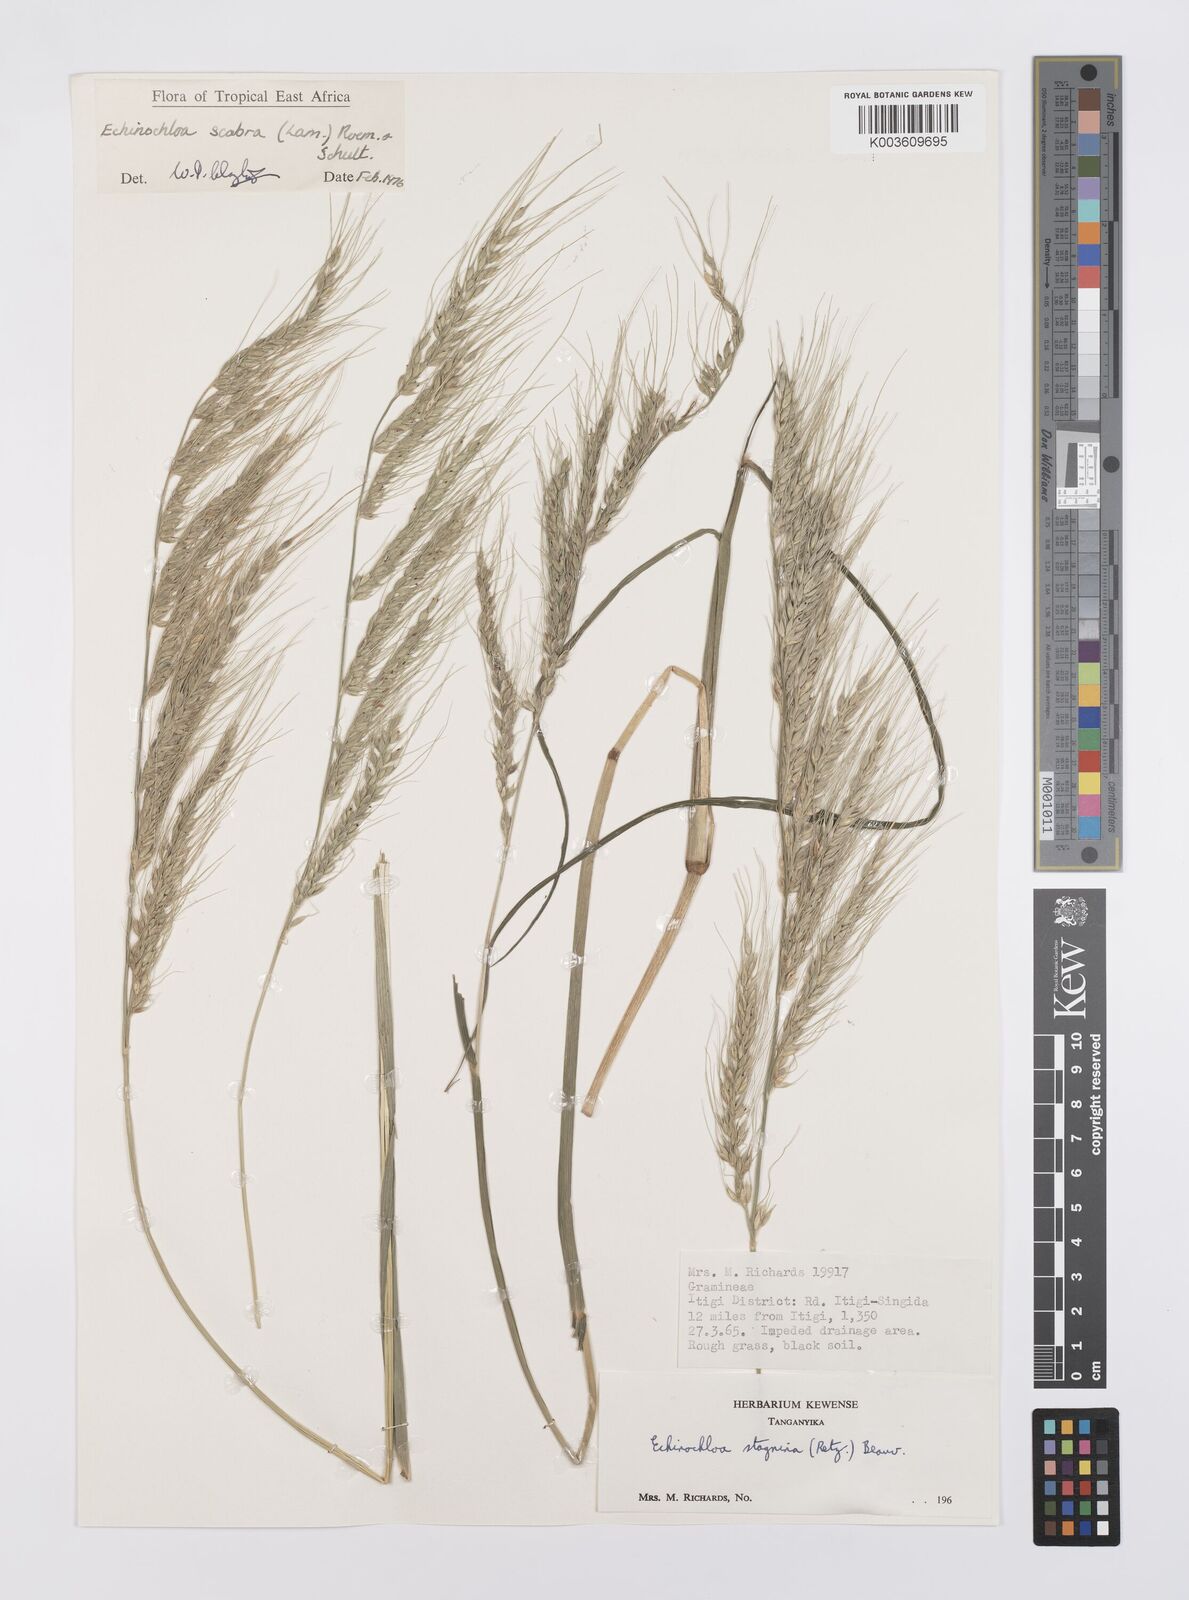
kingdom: Plantae
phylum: Tracheophyta
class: Liliopsida
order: Poales
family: Poaceae
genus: Echinochloa
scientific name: Echinochloa stagnina
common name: Burgu grass
